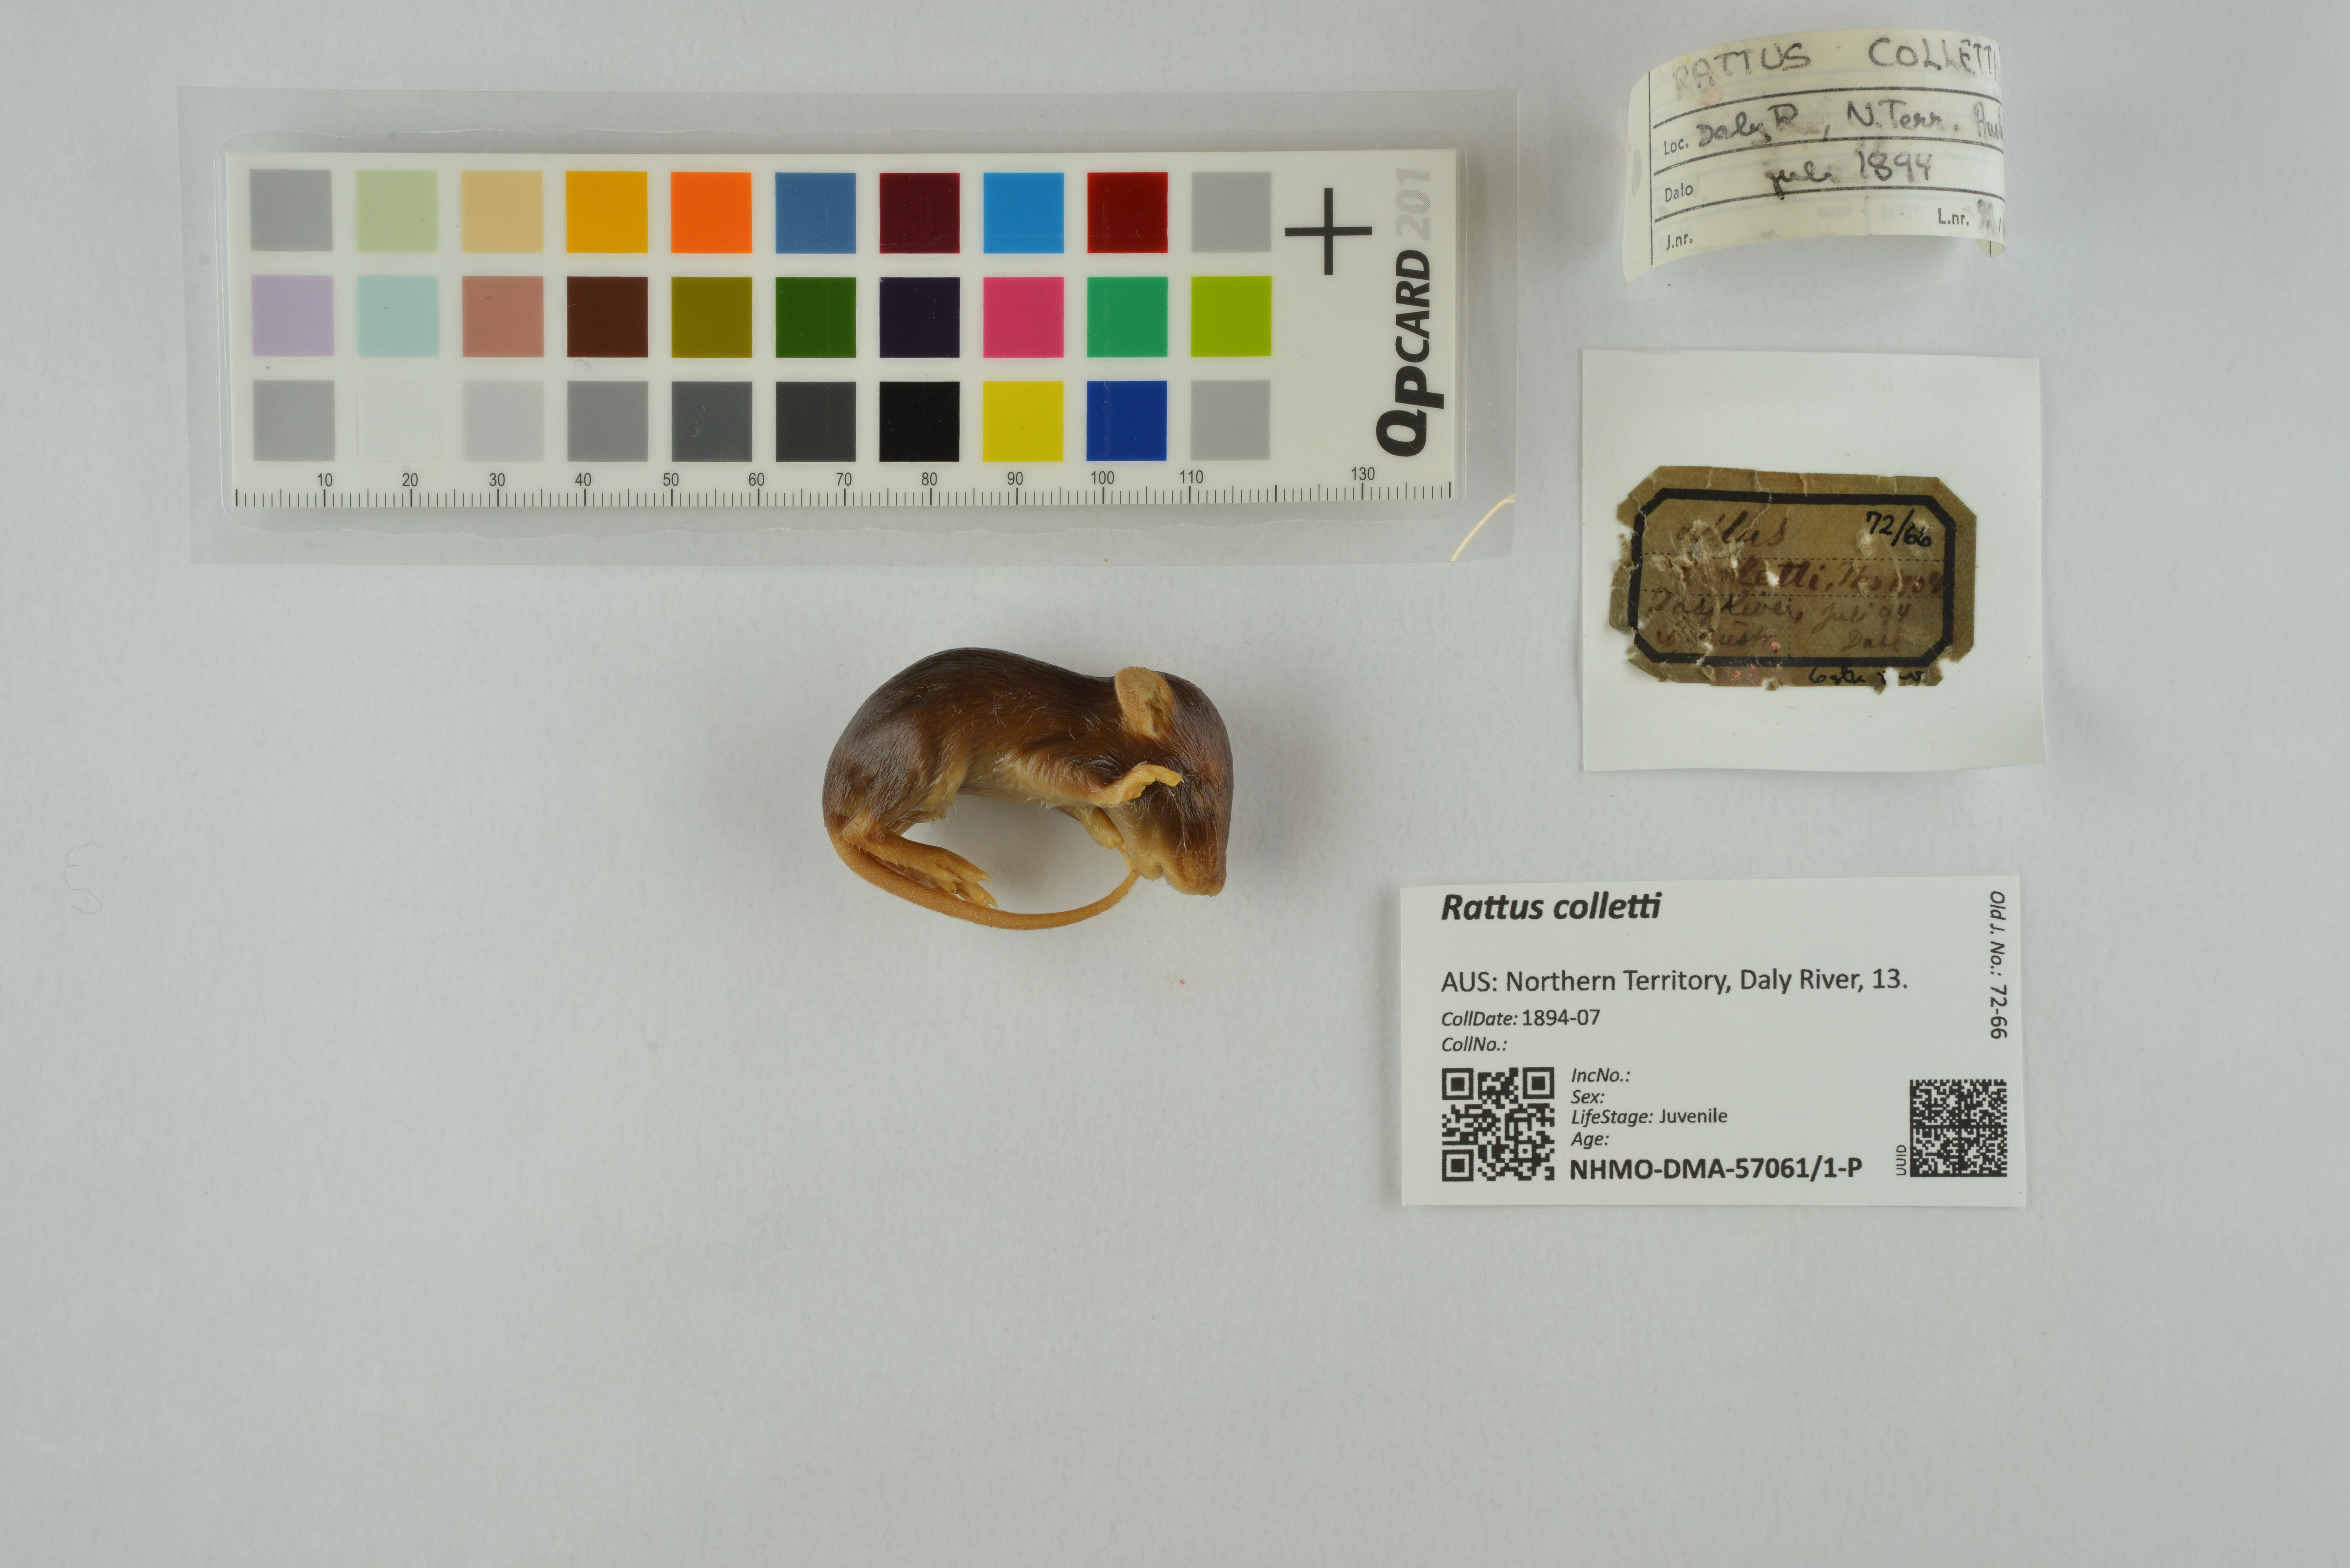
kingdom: Animalia
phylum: Chordata
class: Mammalia
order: Rodentia
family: Muridae
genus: Rattus
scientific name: Rattus colletti
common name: Australian dusky rat
